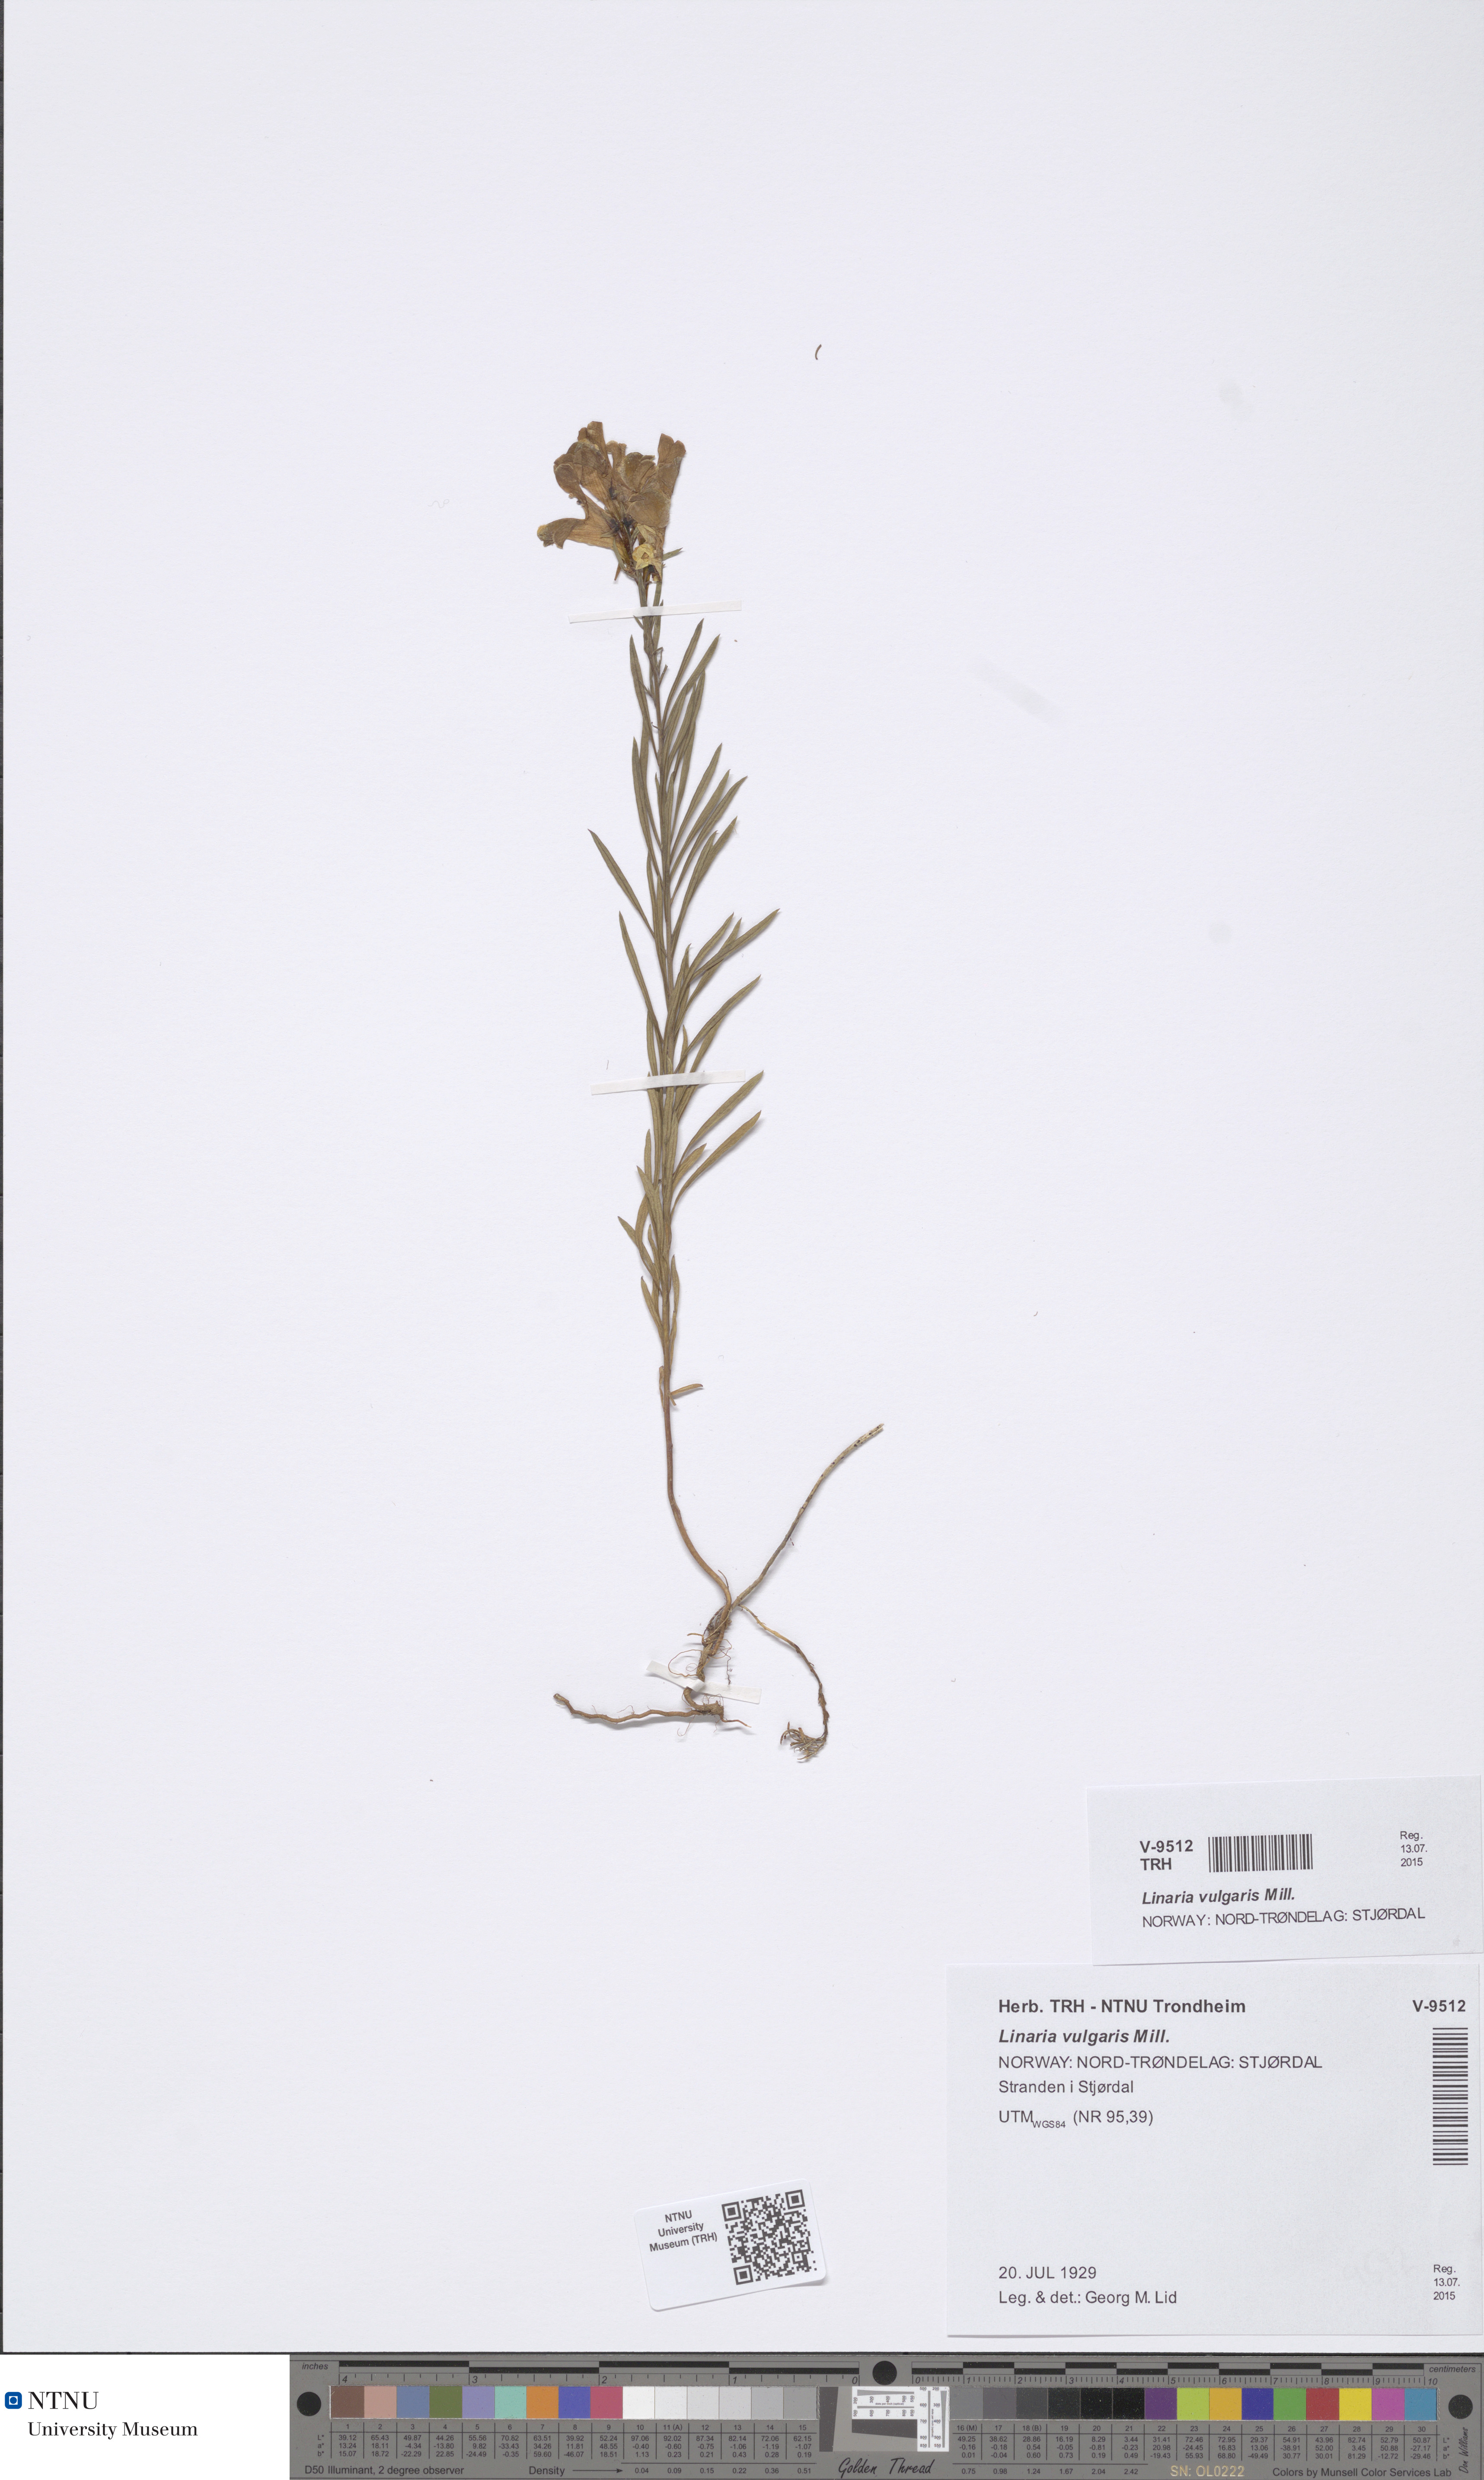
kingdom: Plantae
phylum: Tracheophyta
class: Magnoliopsida
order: Lamiales
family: Plantaginaceae
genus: Linaria
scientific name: Linaria vulgaris
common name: Butter and eggs
